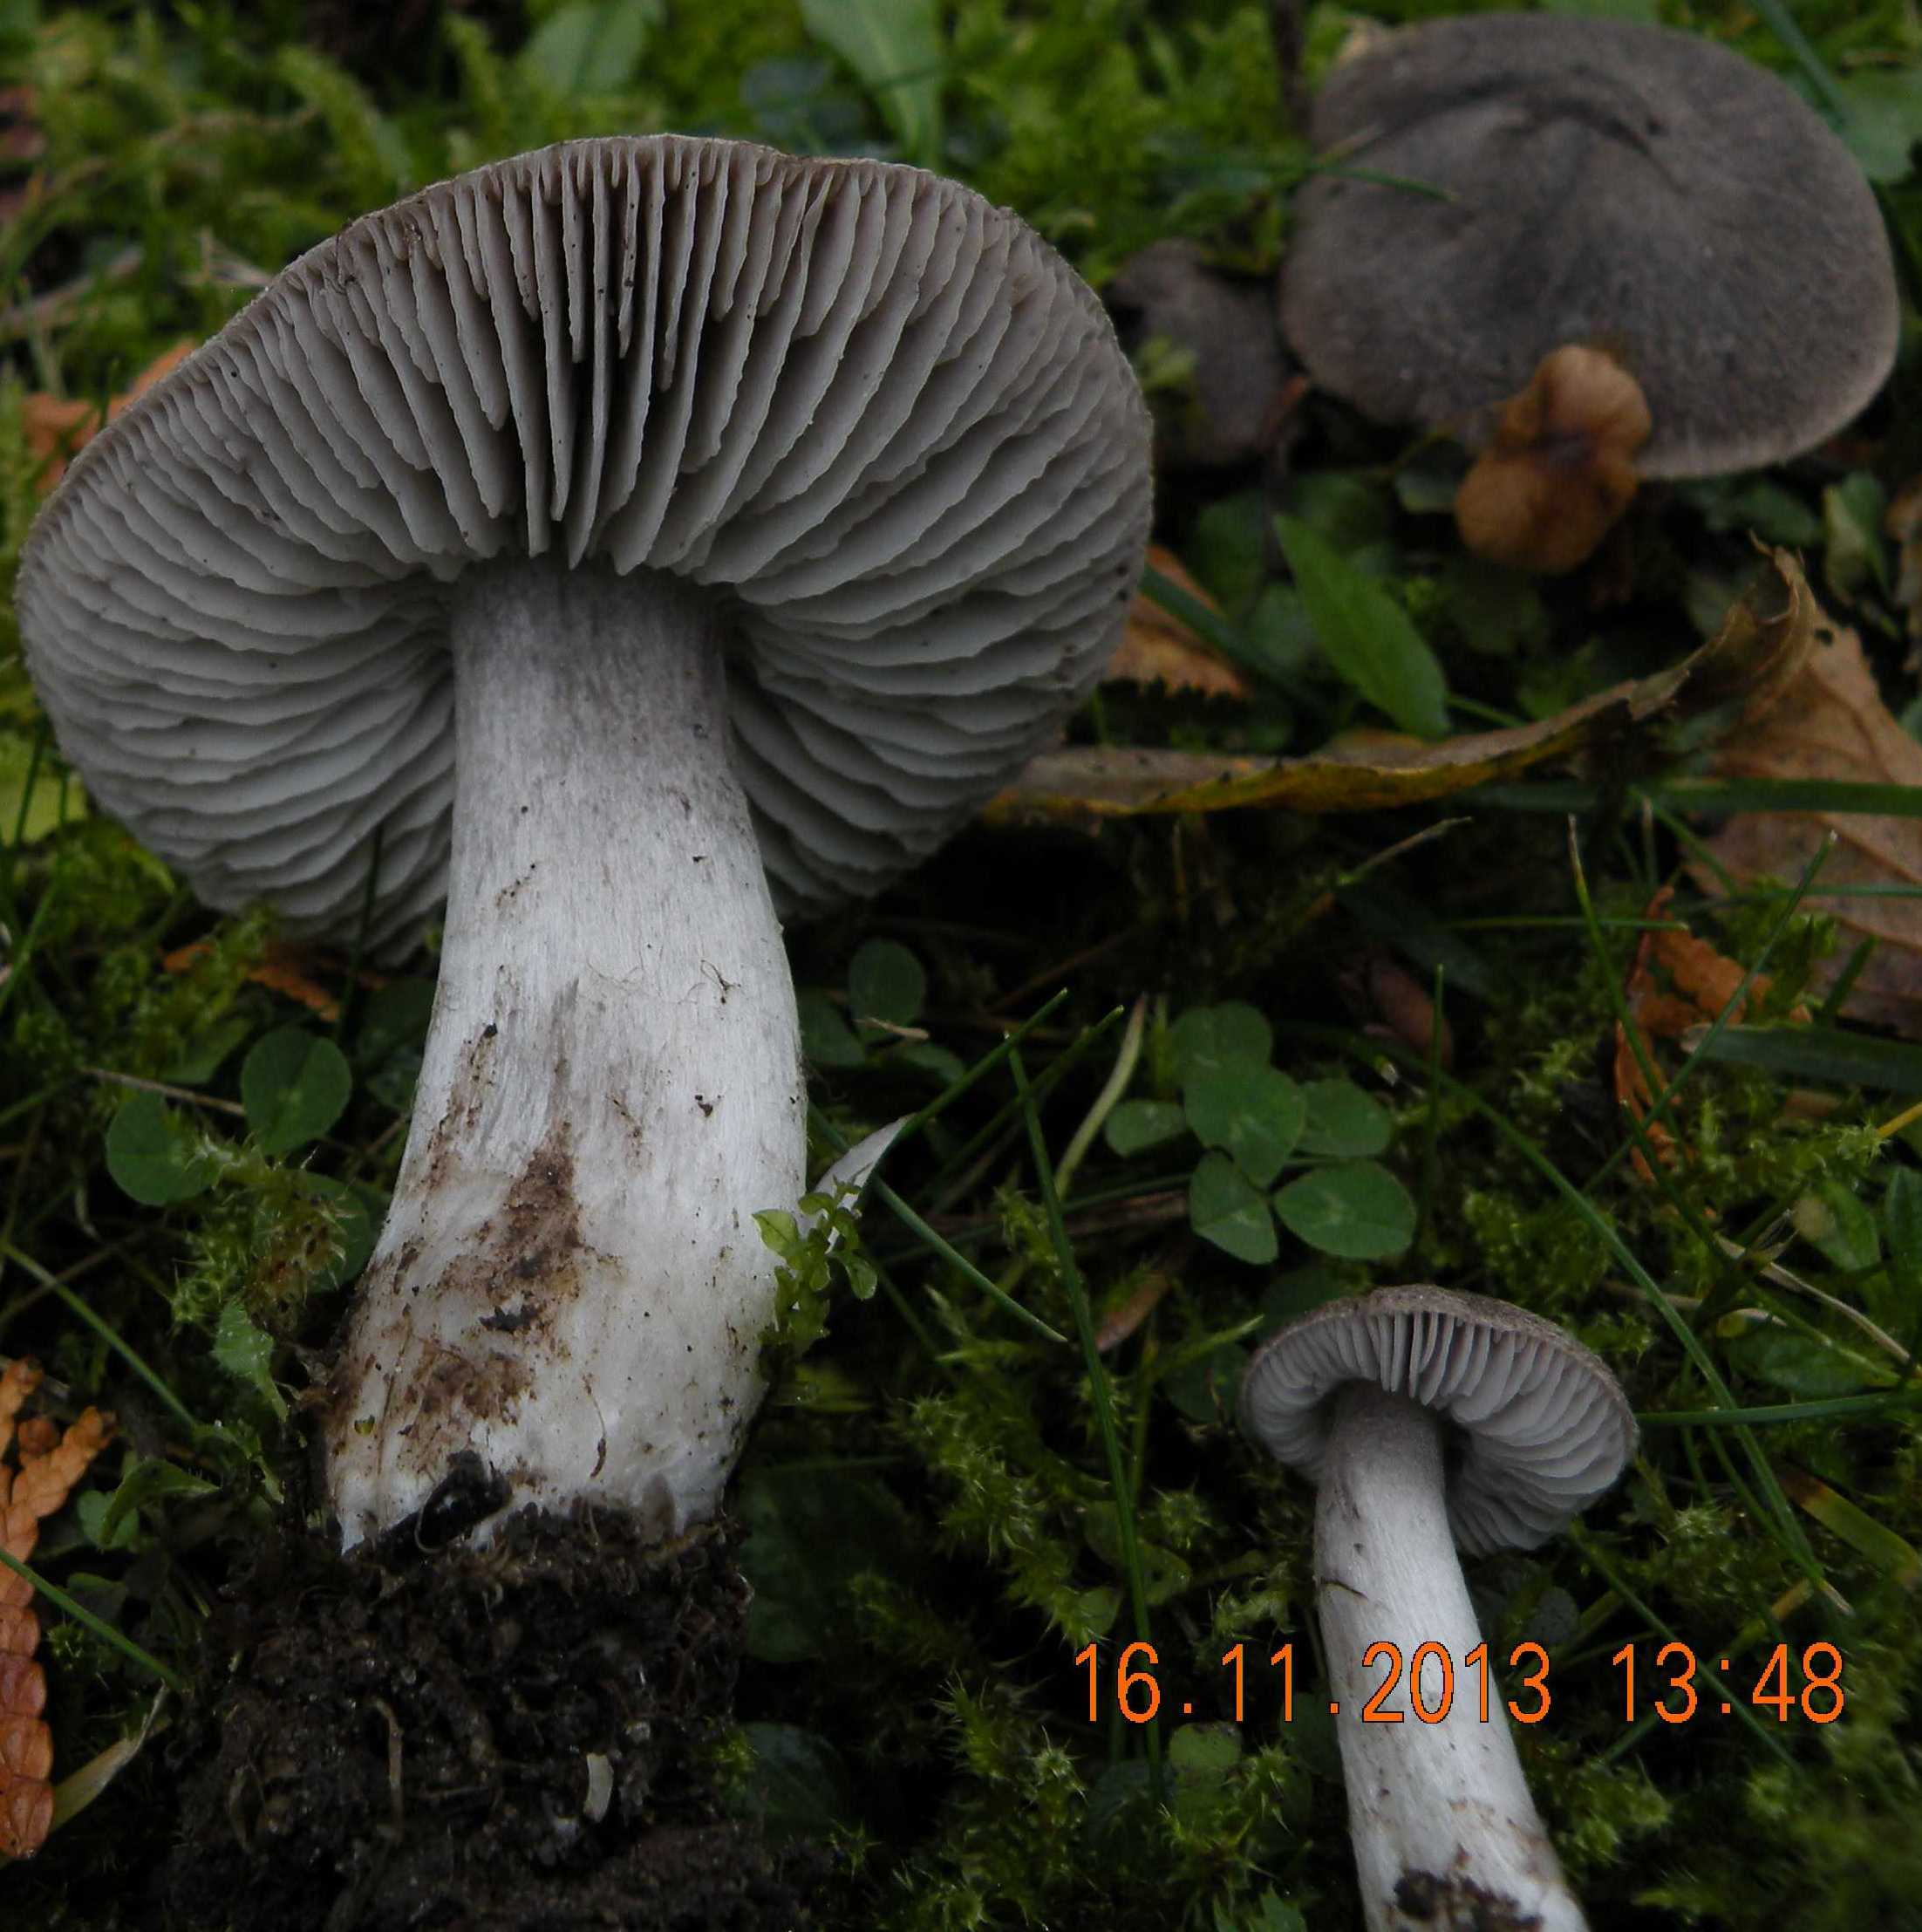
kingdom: Fungi
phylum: Basidiomycota
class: Agaricomycetes
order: Agaricales
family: Tricholomataceae
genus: Tricholoma
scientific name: Tricholoma terreum
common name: jordfarvet ridderhat
